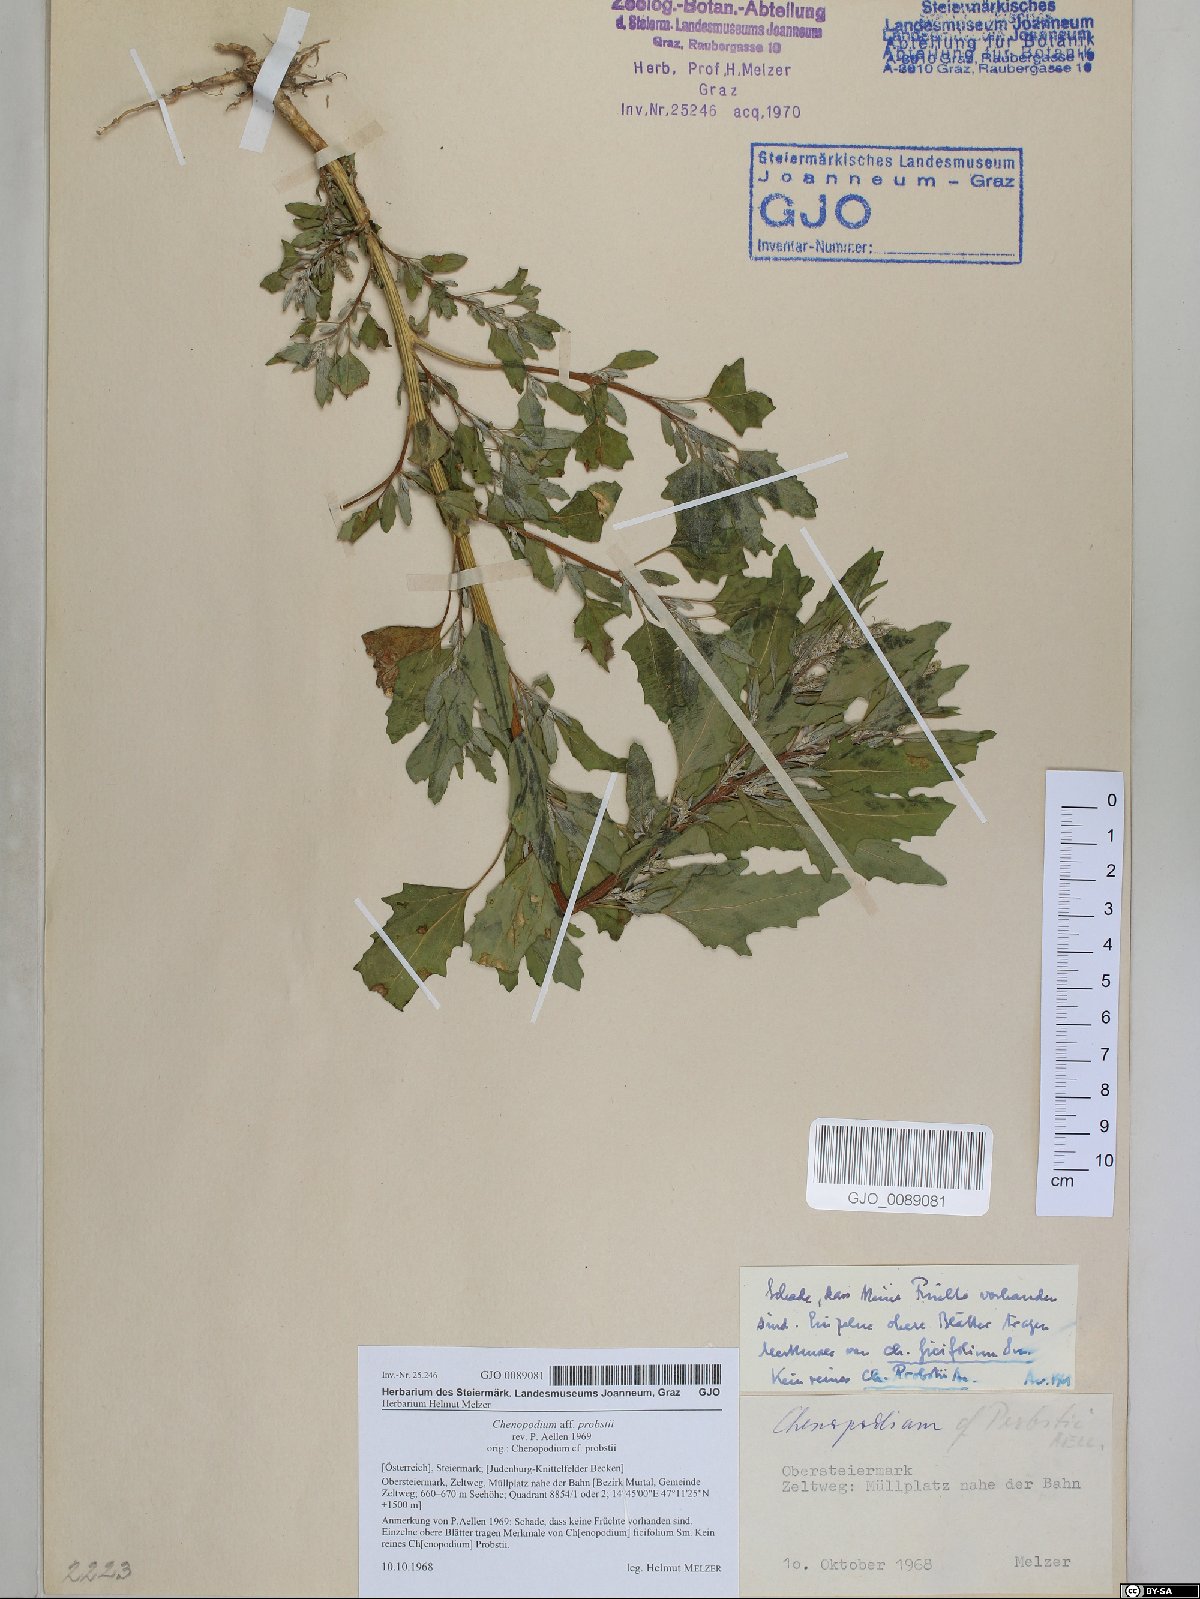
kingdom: Plantae
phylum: Tracheophyta
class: Magnoliopsida
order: Caryophyllales
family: Amaranthaceae
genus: Chenopodium
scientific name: Chenopodium probstii
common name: Probst's goosefoot
